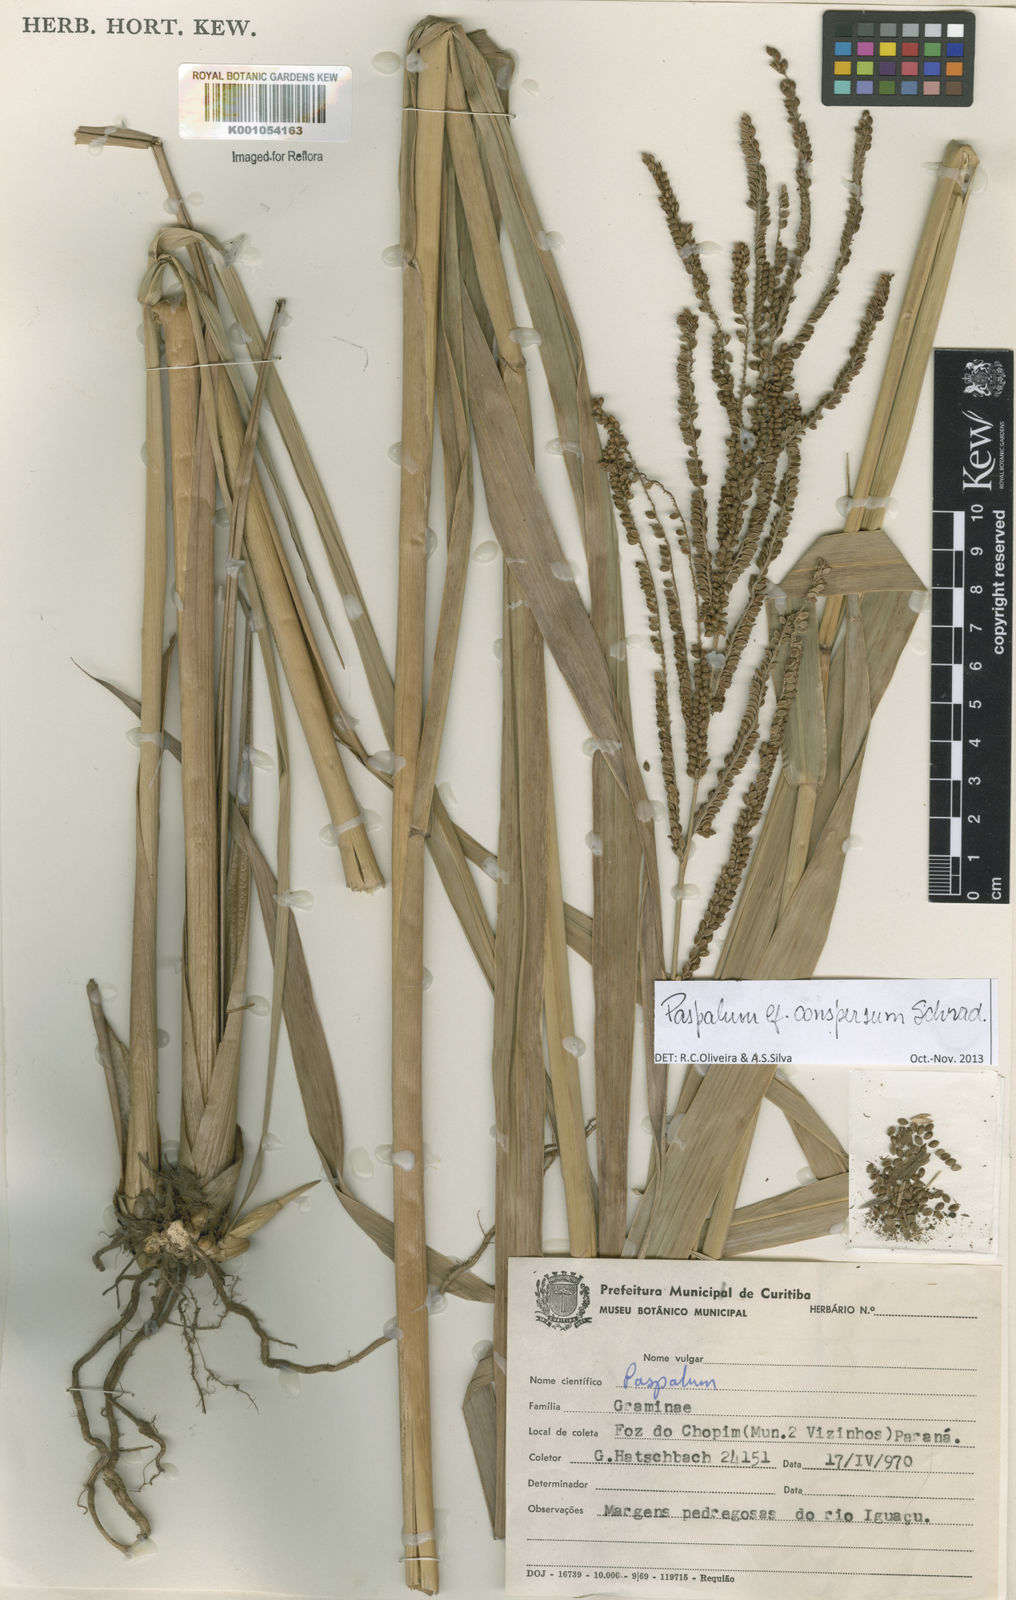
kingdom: Plantae
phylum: Tracheophyta
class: Liliopsida
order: Poales
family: Poaceae
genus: Paspalum
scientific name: Paspalum conspersum
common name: Scattered paspalum
